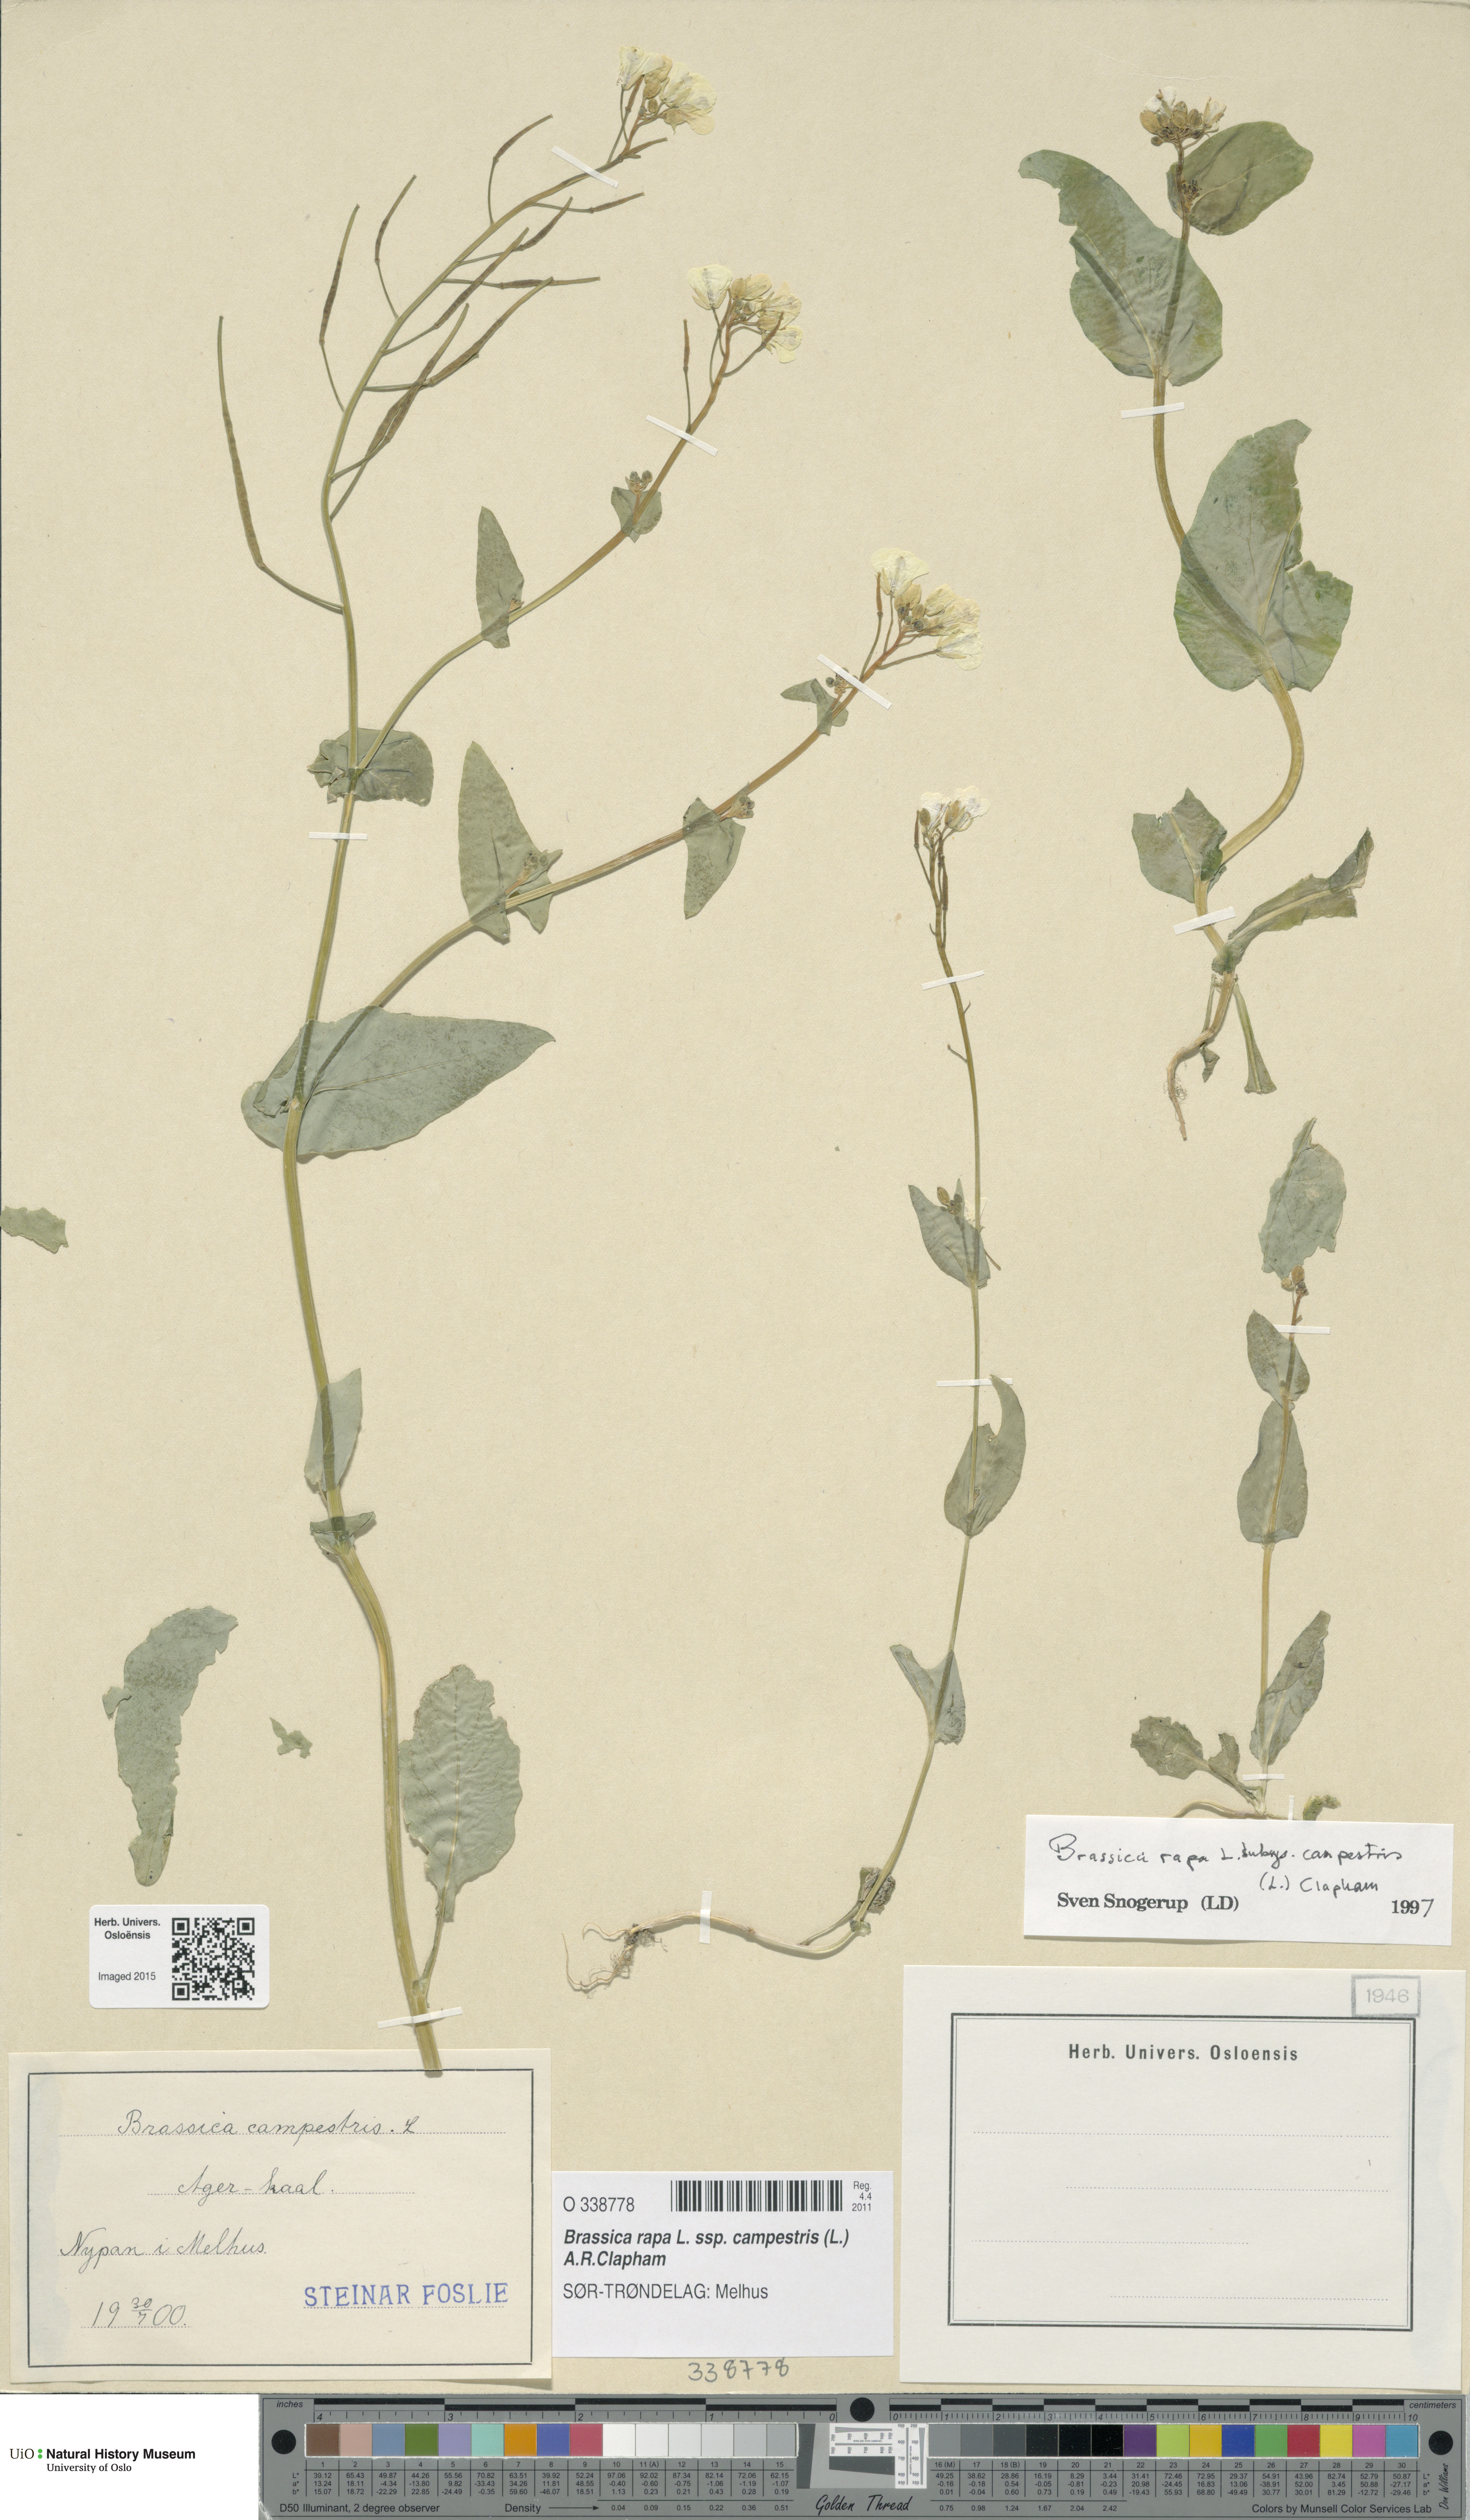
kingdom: Plantae
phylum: Tracheophyta
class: Magnoliopsida
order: Brassicales
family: Brassicaceae
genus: Brassica
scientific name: Brassica rapa
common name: Field mustard
